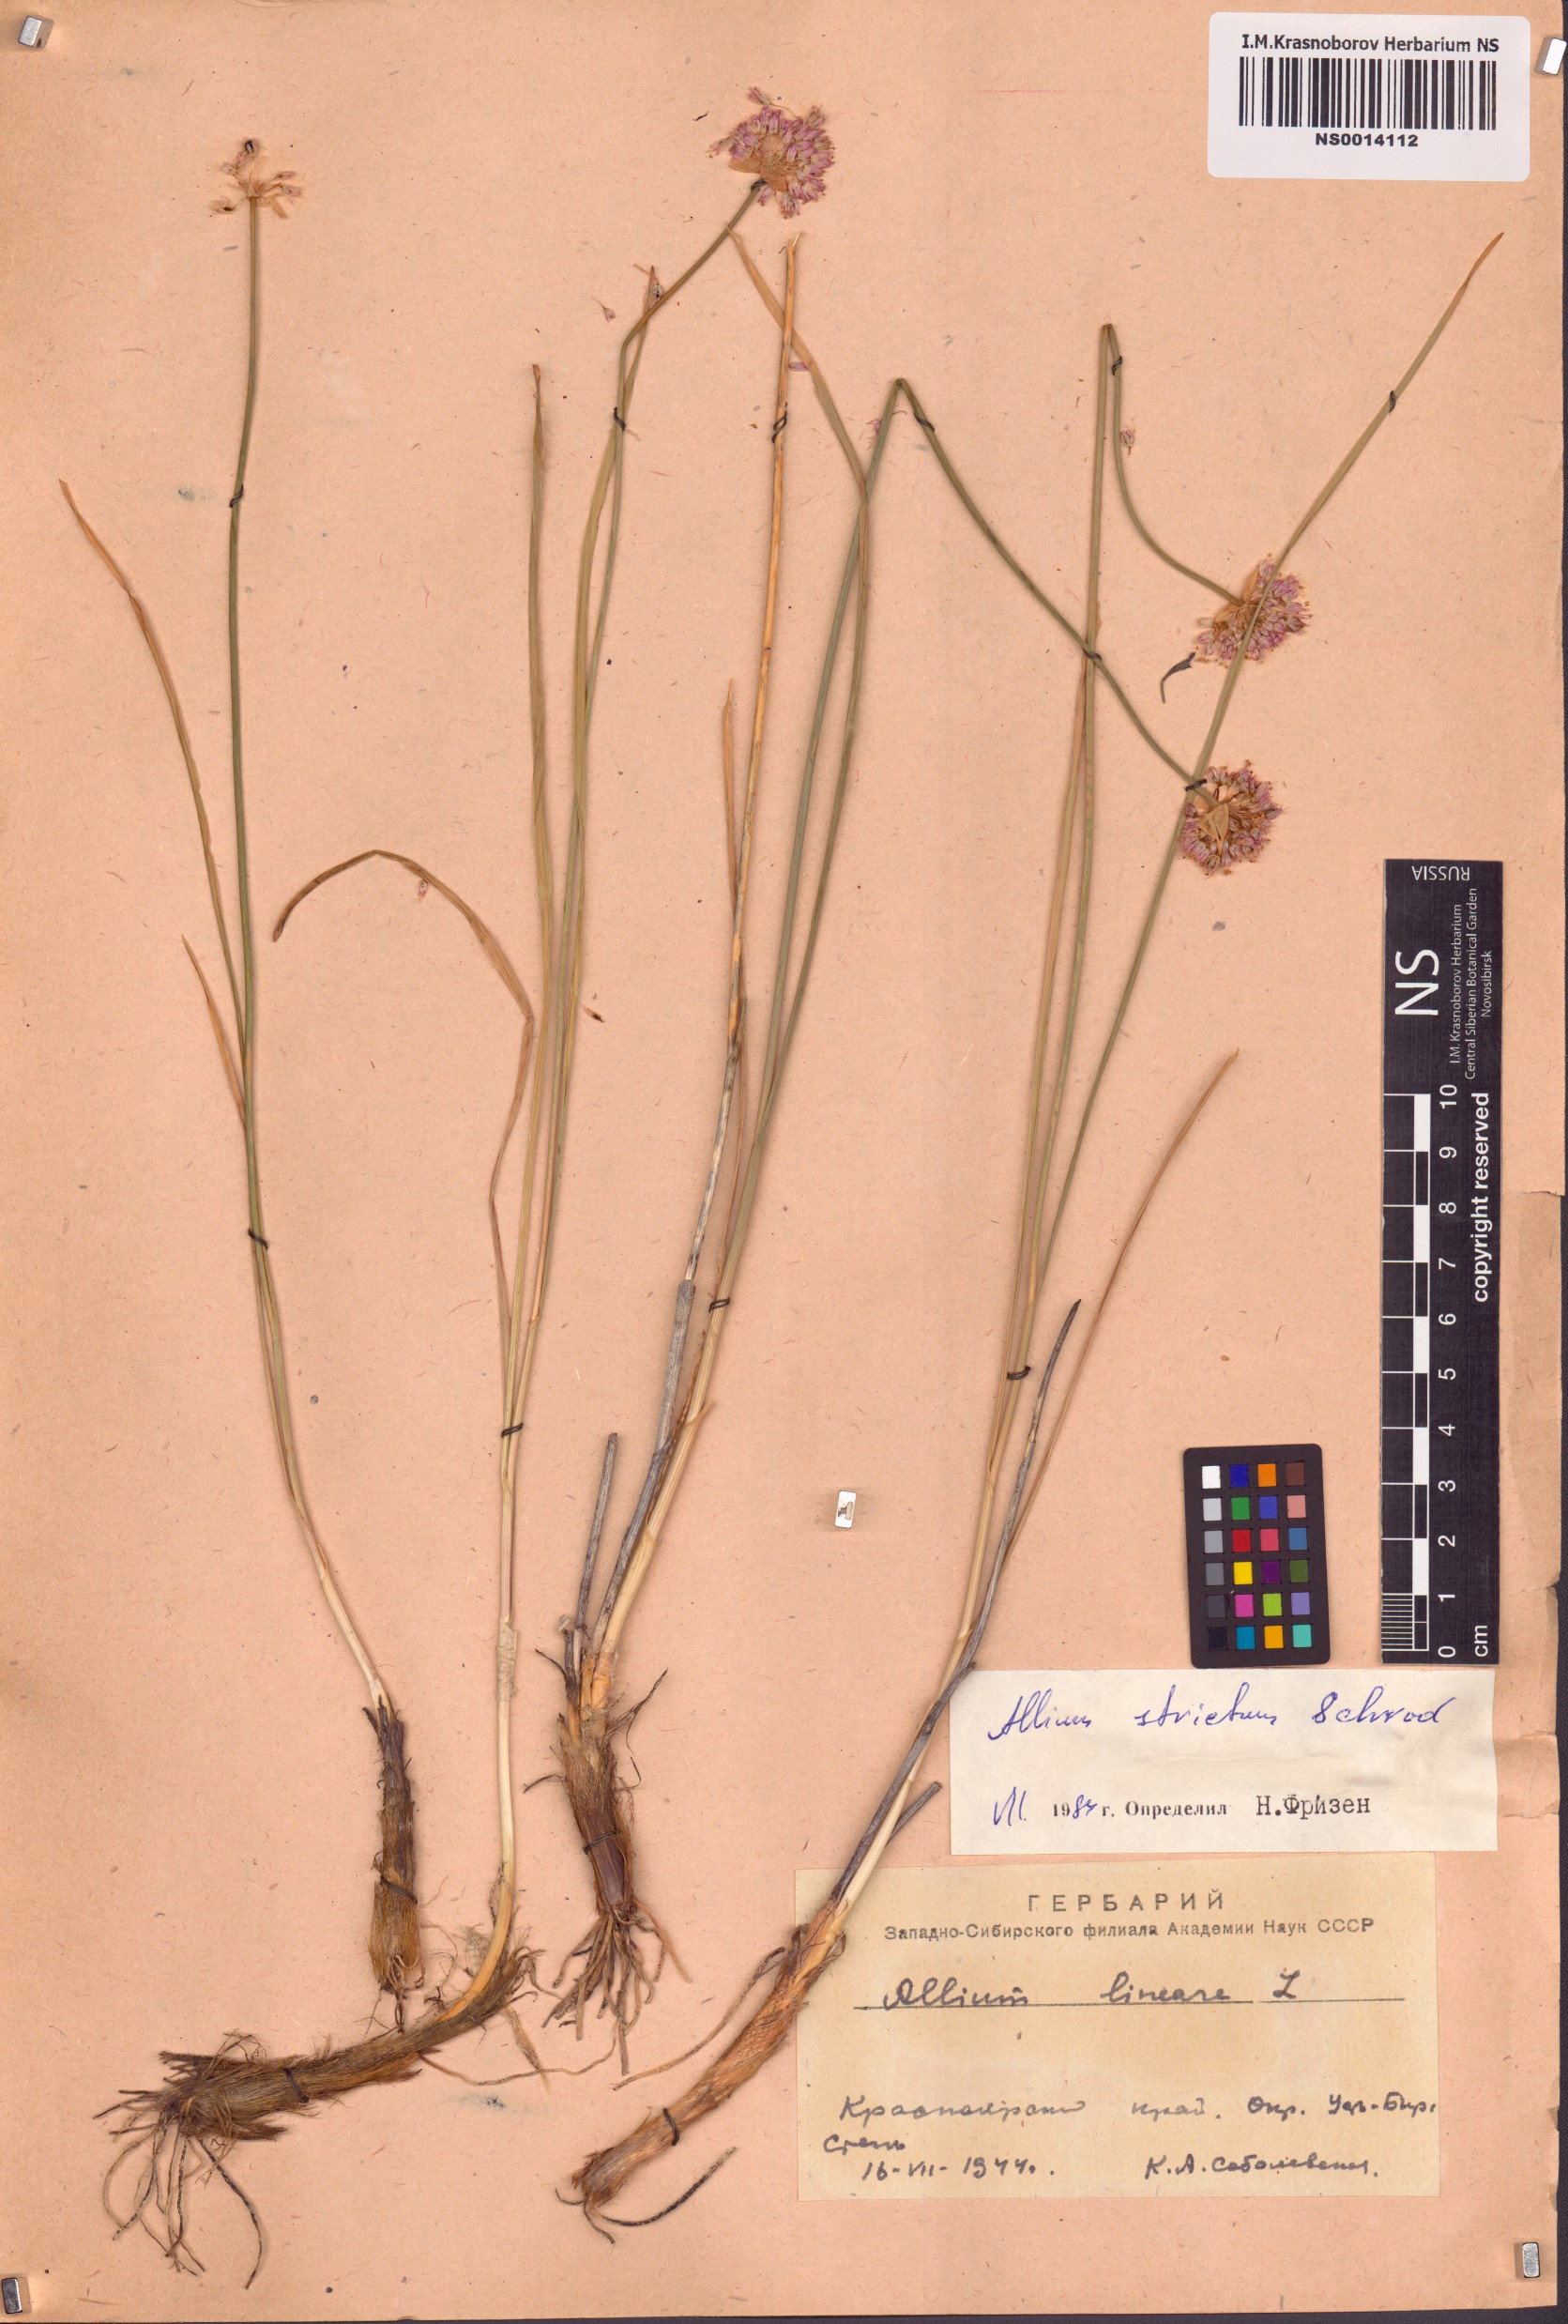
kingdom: Plantae
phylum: Tracheophyta
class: Liliopsida
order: Asparagales
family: Amaryllidaceae
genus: Allium
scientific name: Allium strictum
